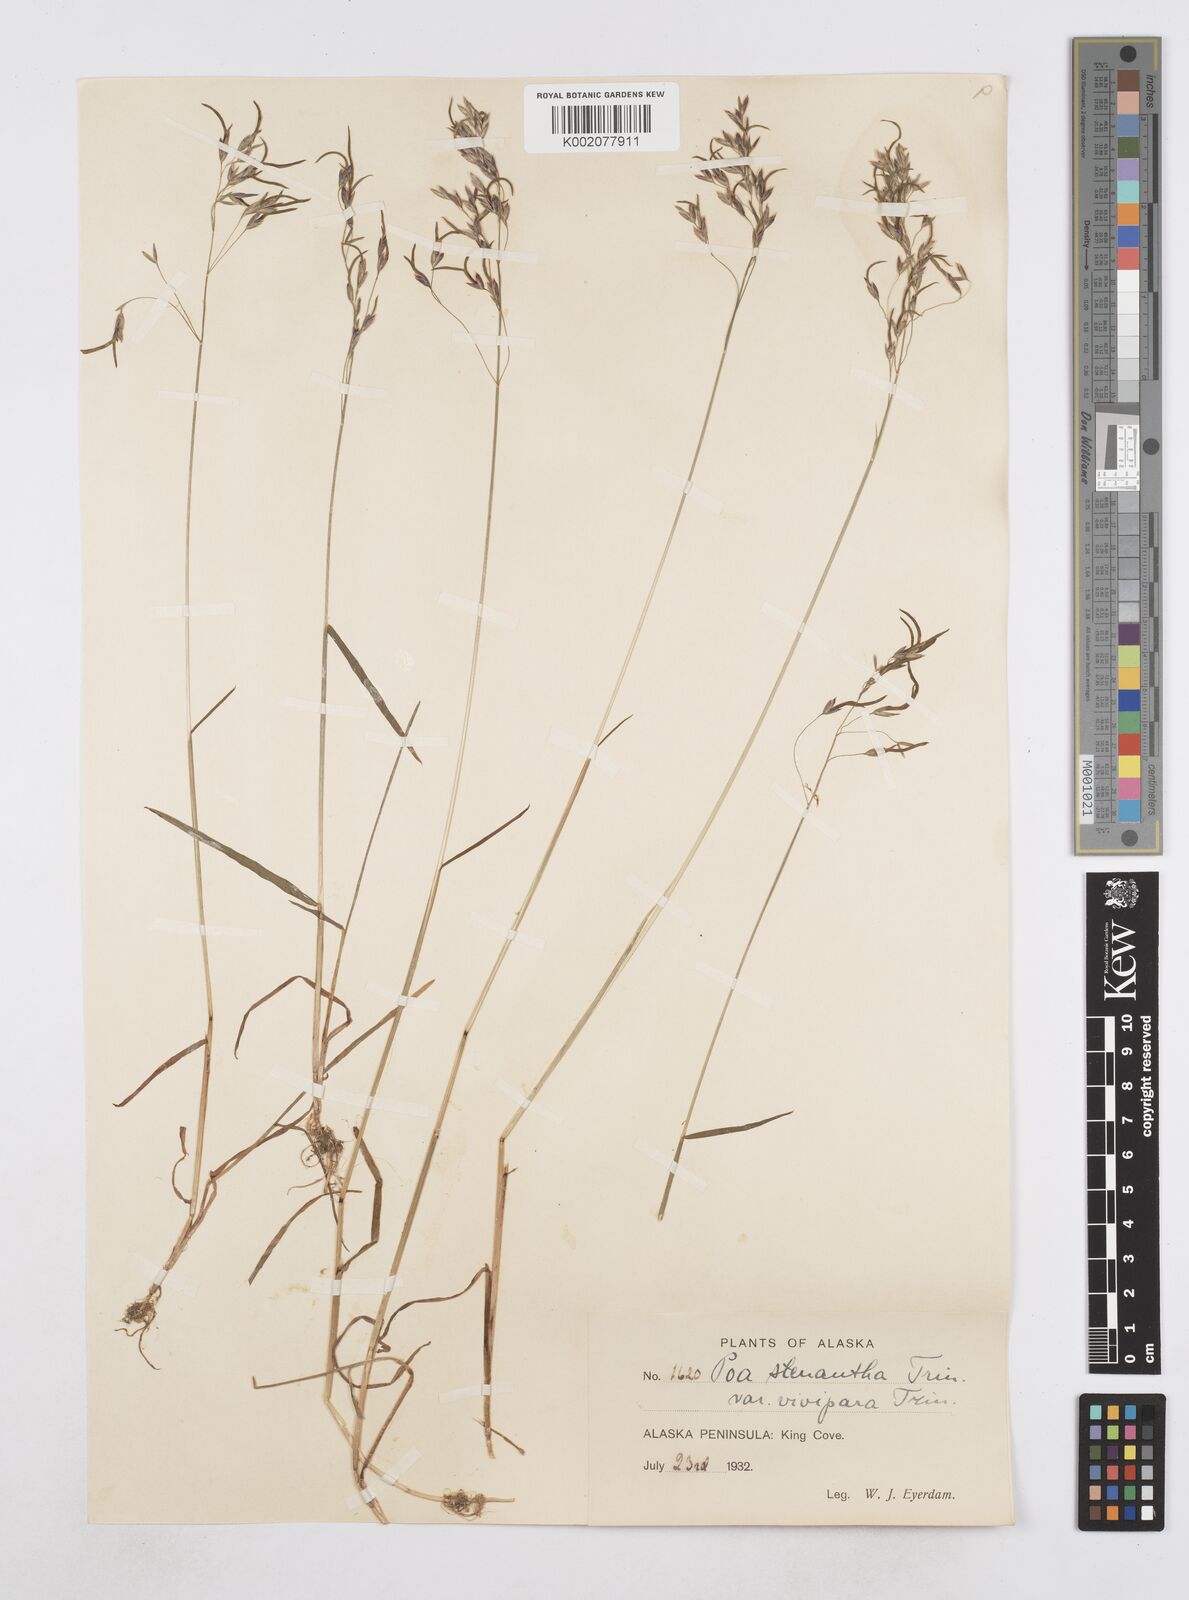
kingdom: Plantae
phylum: Tracheophyta
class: Liliopsida
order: Poales
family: Poaceae
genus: Poa
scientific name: Poa stenantha
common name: Narrow-flowered bluegrass
